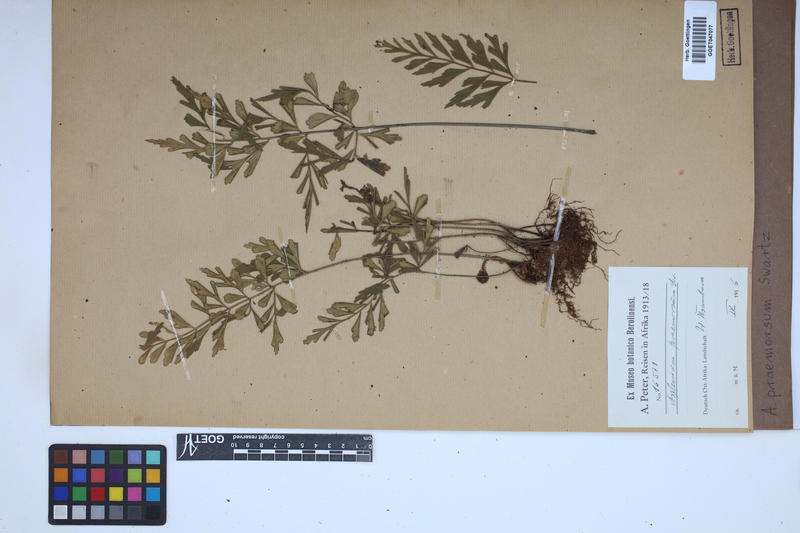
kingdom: Plantae
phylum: Tracheophyta
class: Polypodiopsida
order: Polypodiales
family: Aspleniaceae
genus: Asplenium
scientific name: Asplenium praemorsum
